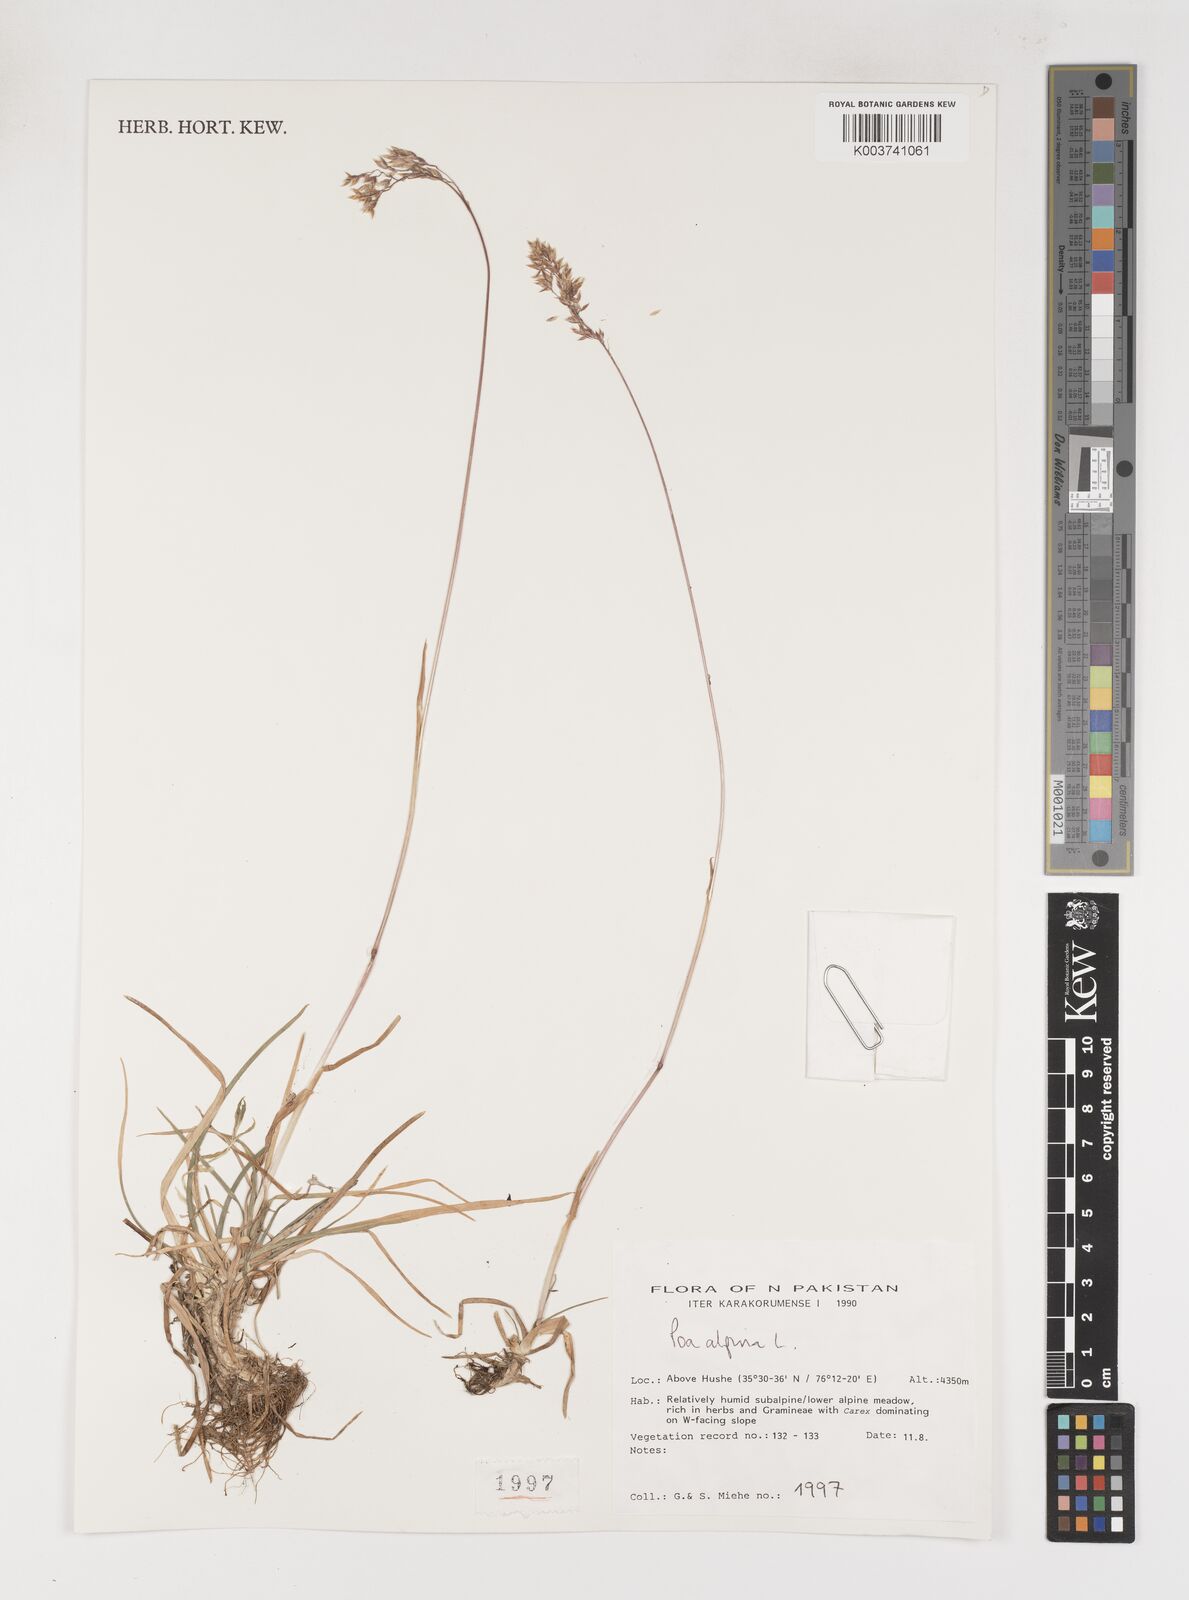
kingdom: Plantae
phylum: Tracheophyta
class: Liliopsida
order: Poales
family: Poaceae
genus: Poa
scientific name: Poa alpina
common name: Alpine bluegrass
